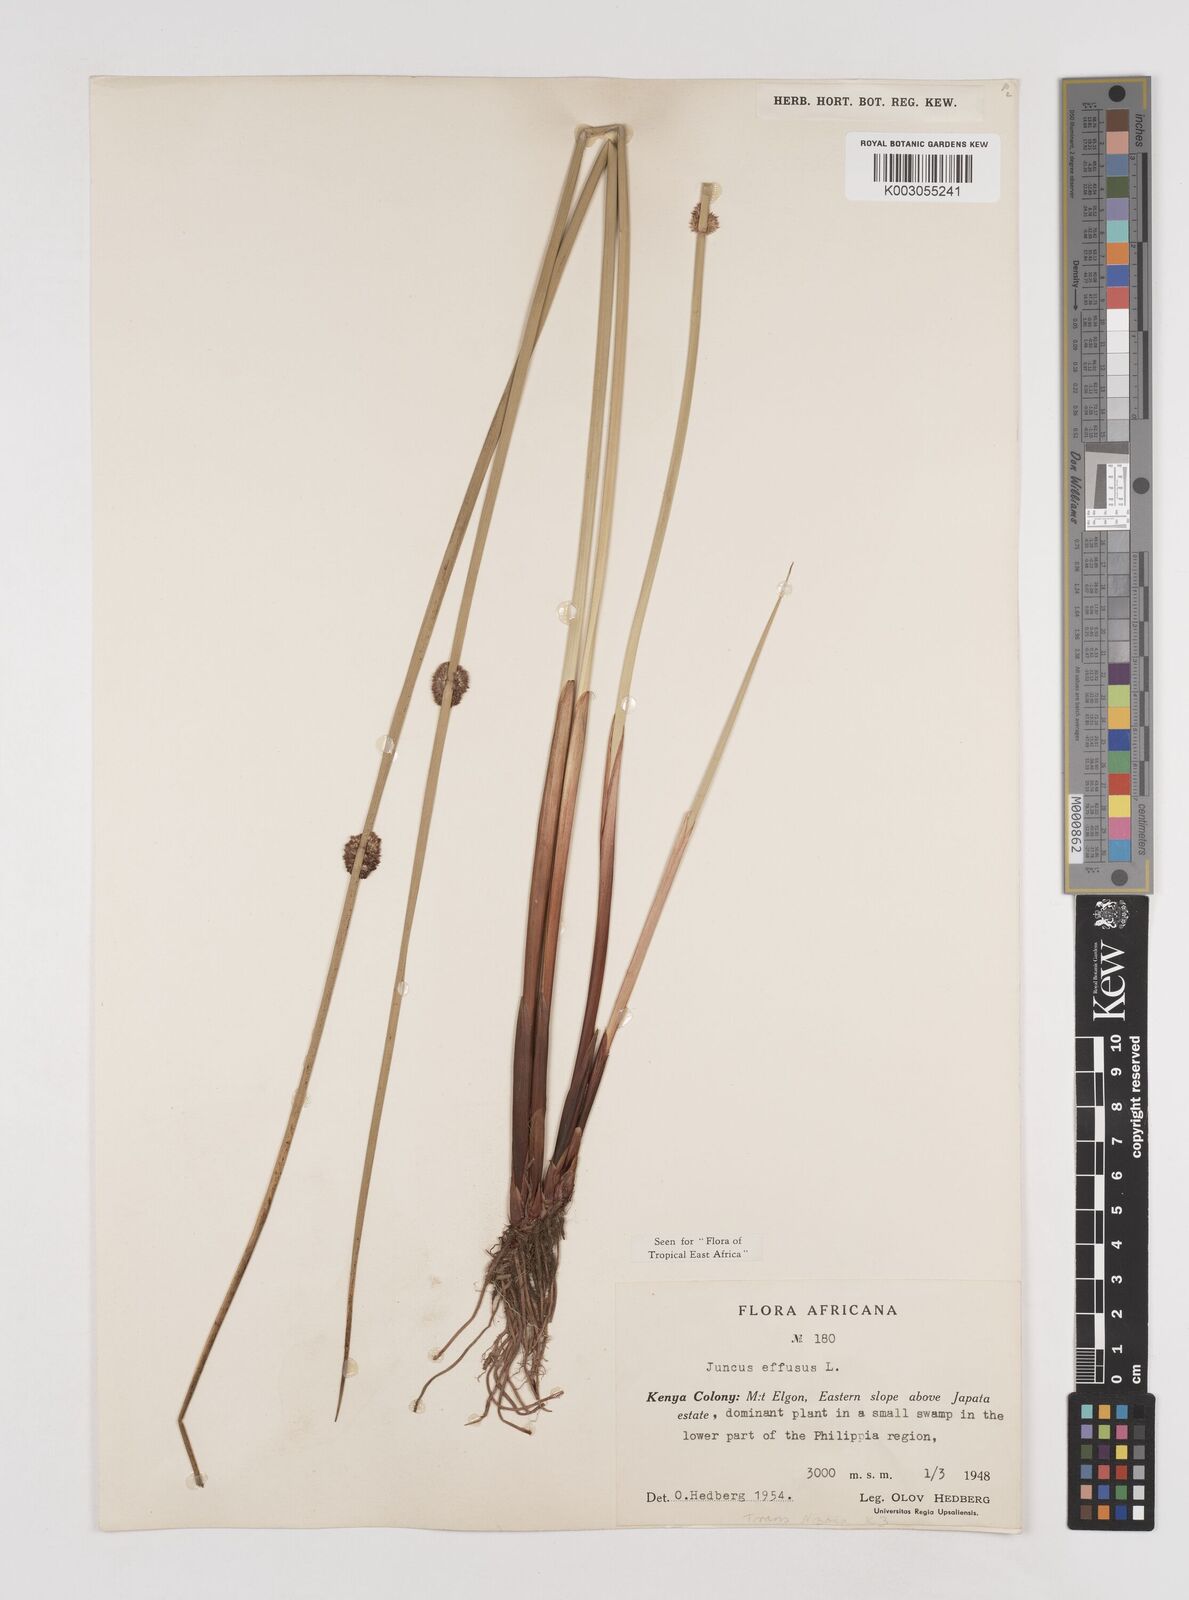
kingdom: Plantae
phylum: Tracheophyta
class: Liliopsida
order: Poales
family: Juncaceae
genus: Juncus
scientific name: Juncus effusus
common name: Soft rush
